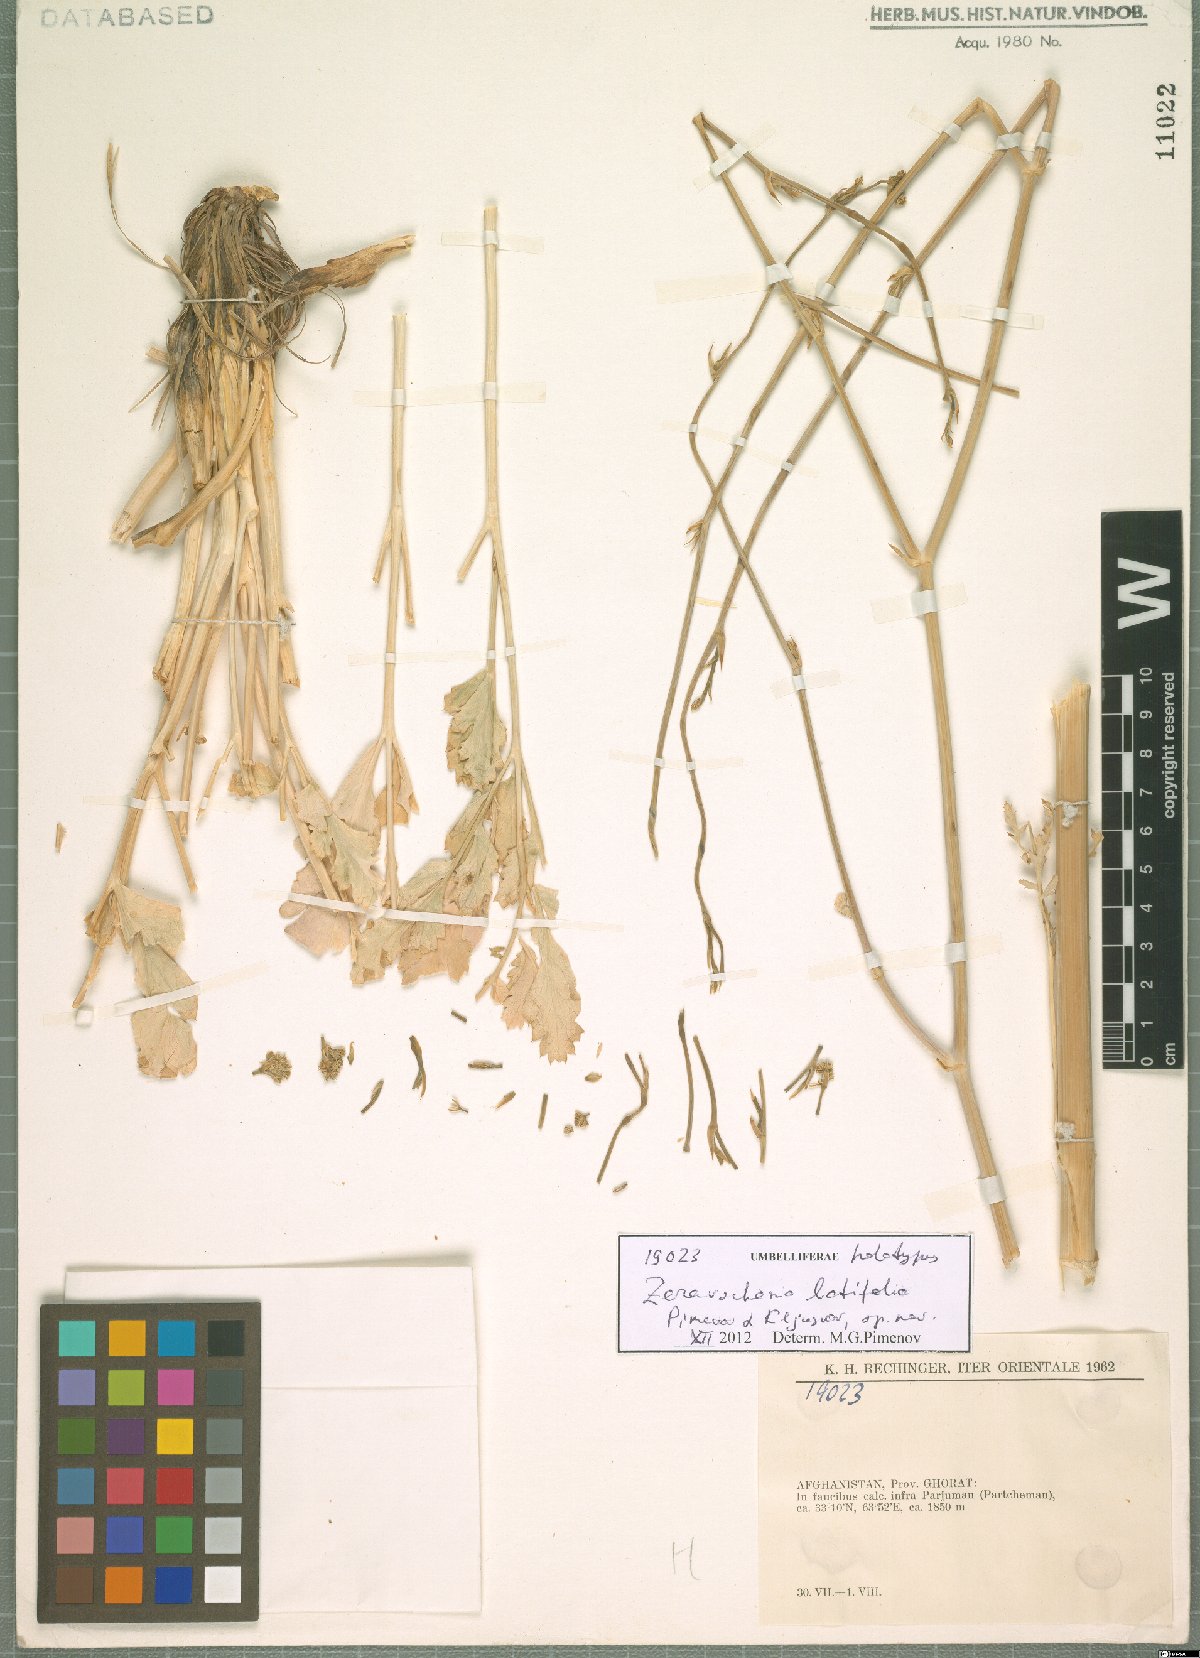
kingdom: Plantae
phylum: Tracheophyta
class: Magnoliopsida
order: Apiales
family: Apiaceae
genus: Zeravschania
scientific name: Zeravschania latifolia
